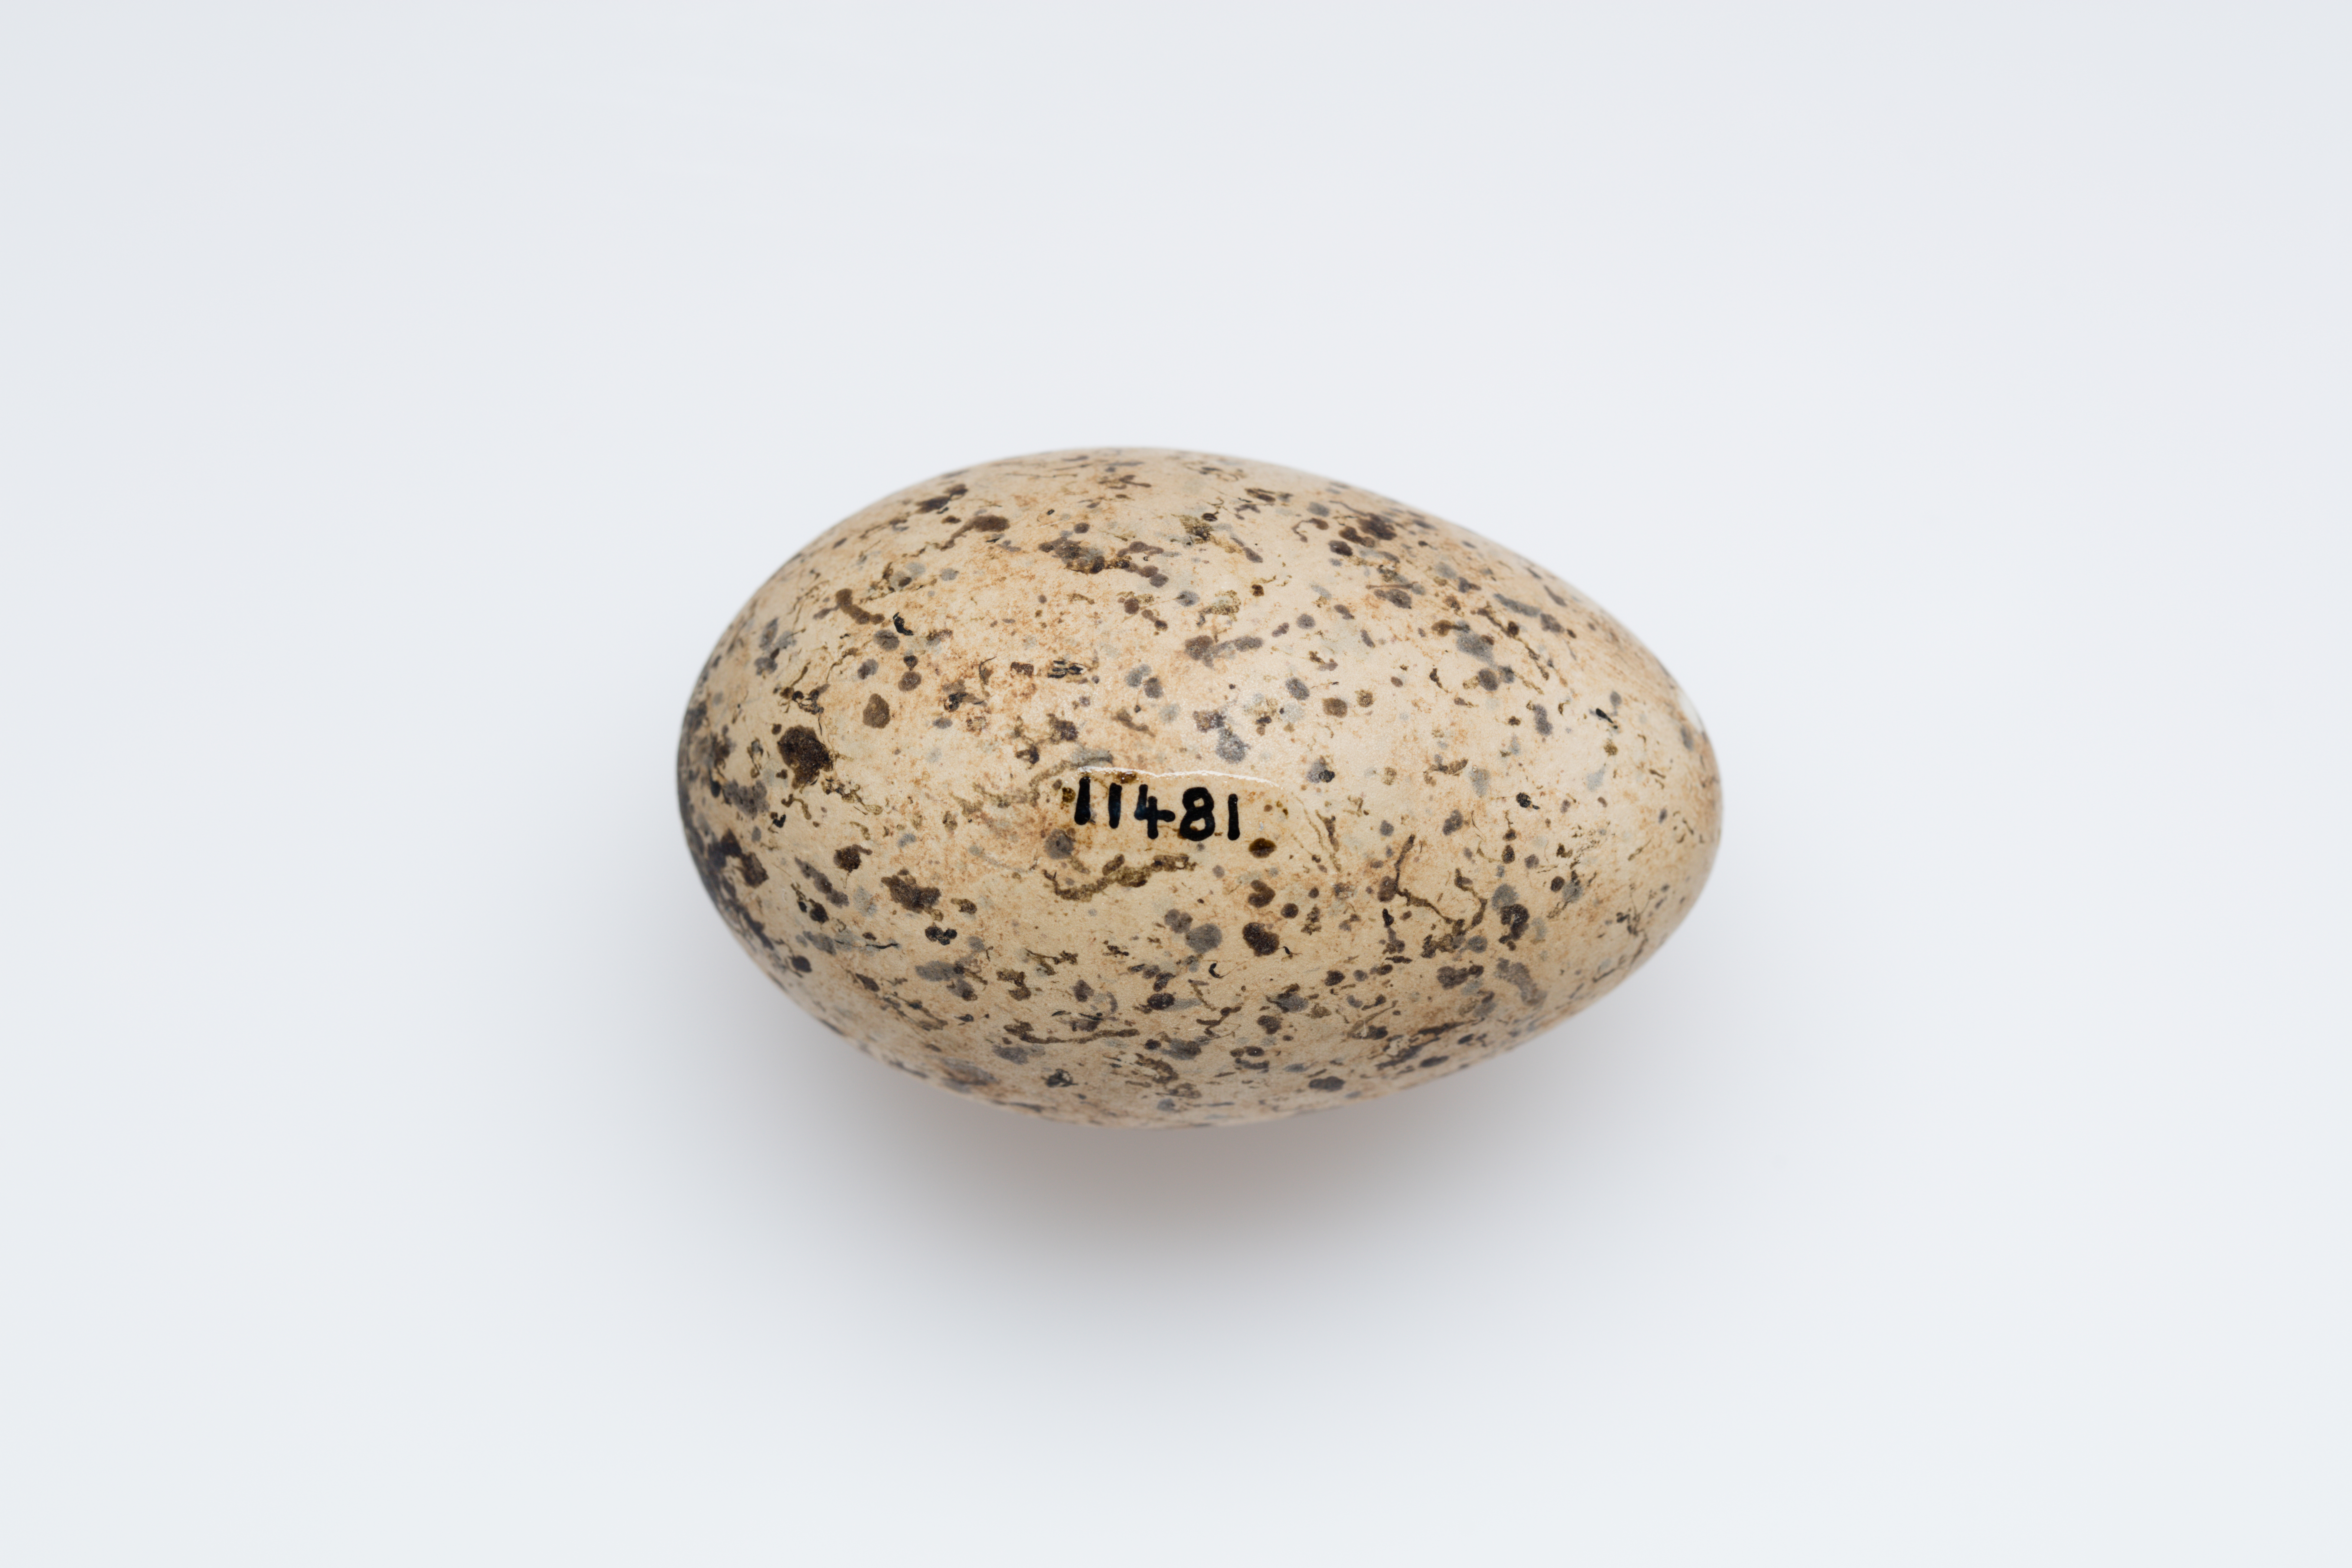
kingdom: Animalia
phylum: Chordata
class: Aves
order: Charadriiformes
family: Burhinidae
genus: Burhinus
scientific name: Burhinus oedicnemus
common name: Eurasian stone-curlew
